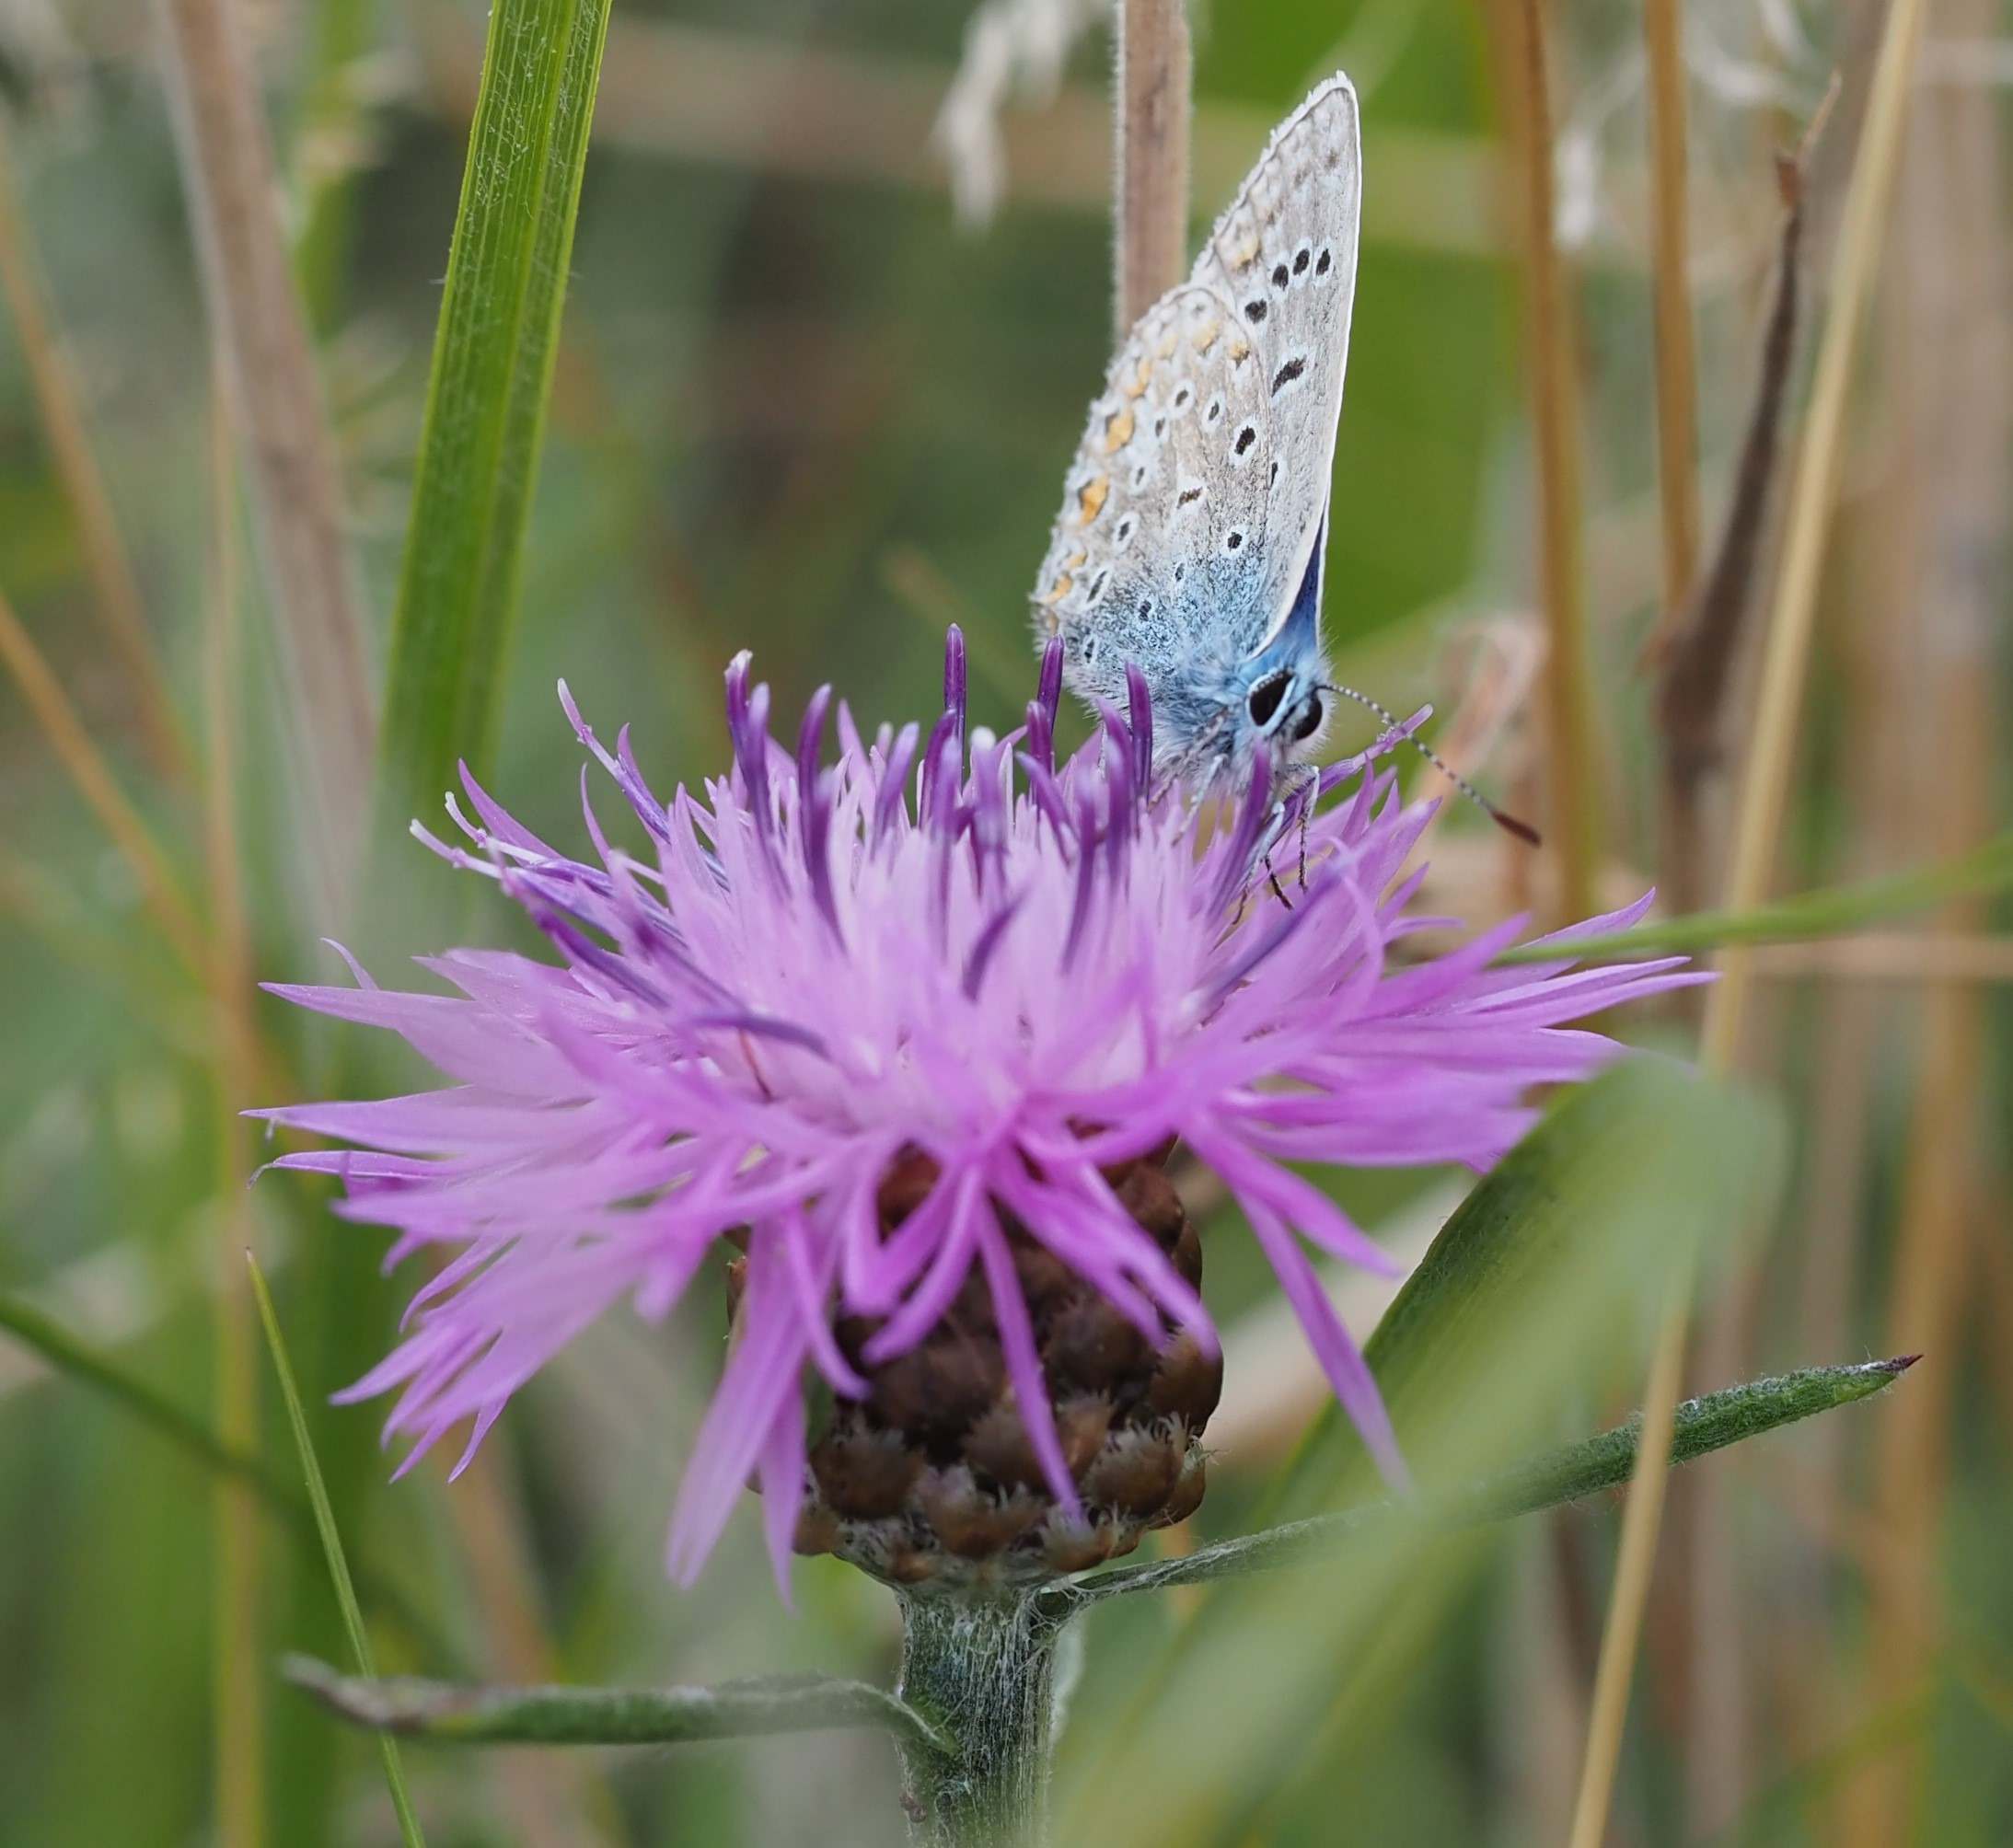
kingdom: Animalia
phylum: Arthropoda
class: Insecta
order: Lepidoptera
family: Lycaenidae
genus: Polyommatus
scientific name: Polyommatus icarus
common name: Almindelig blåfugl
